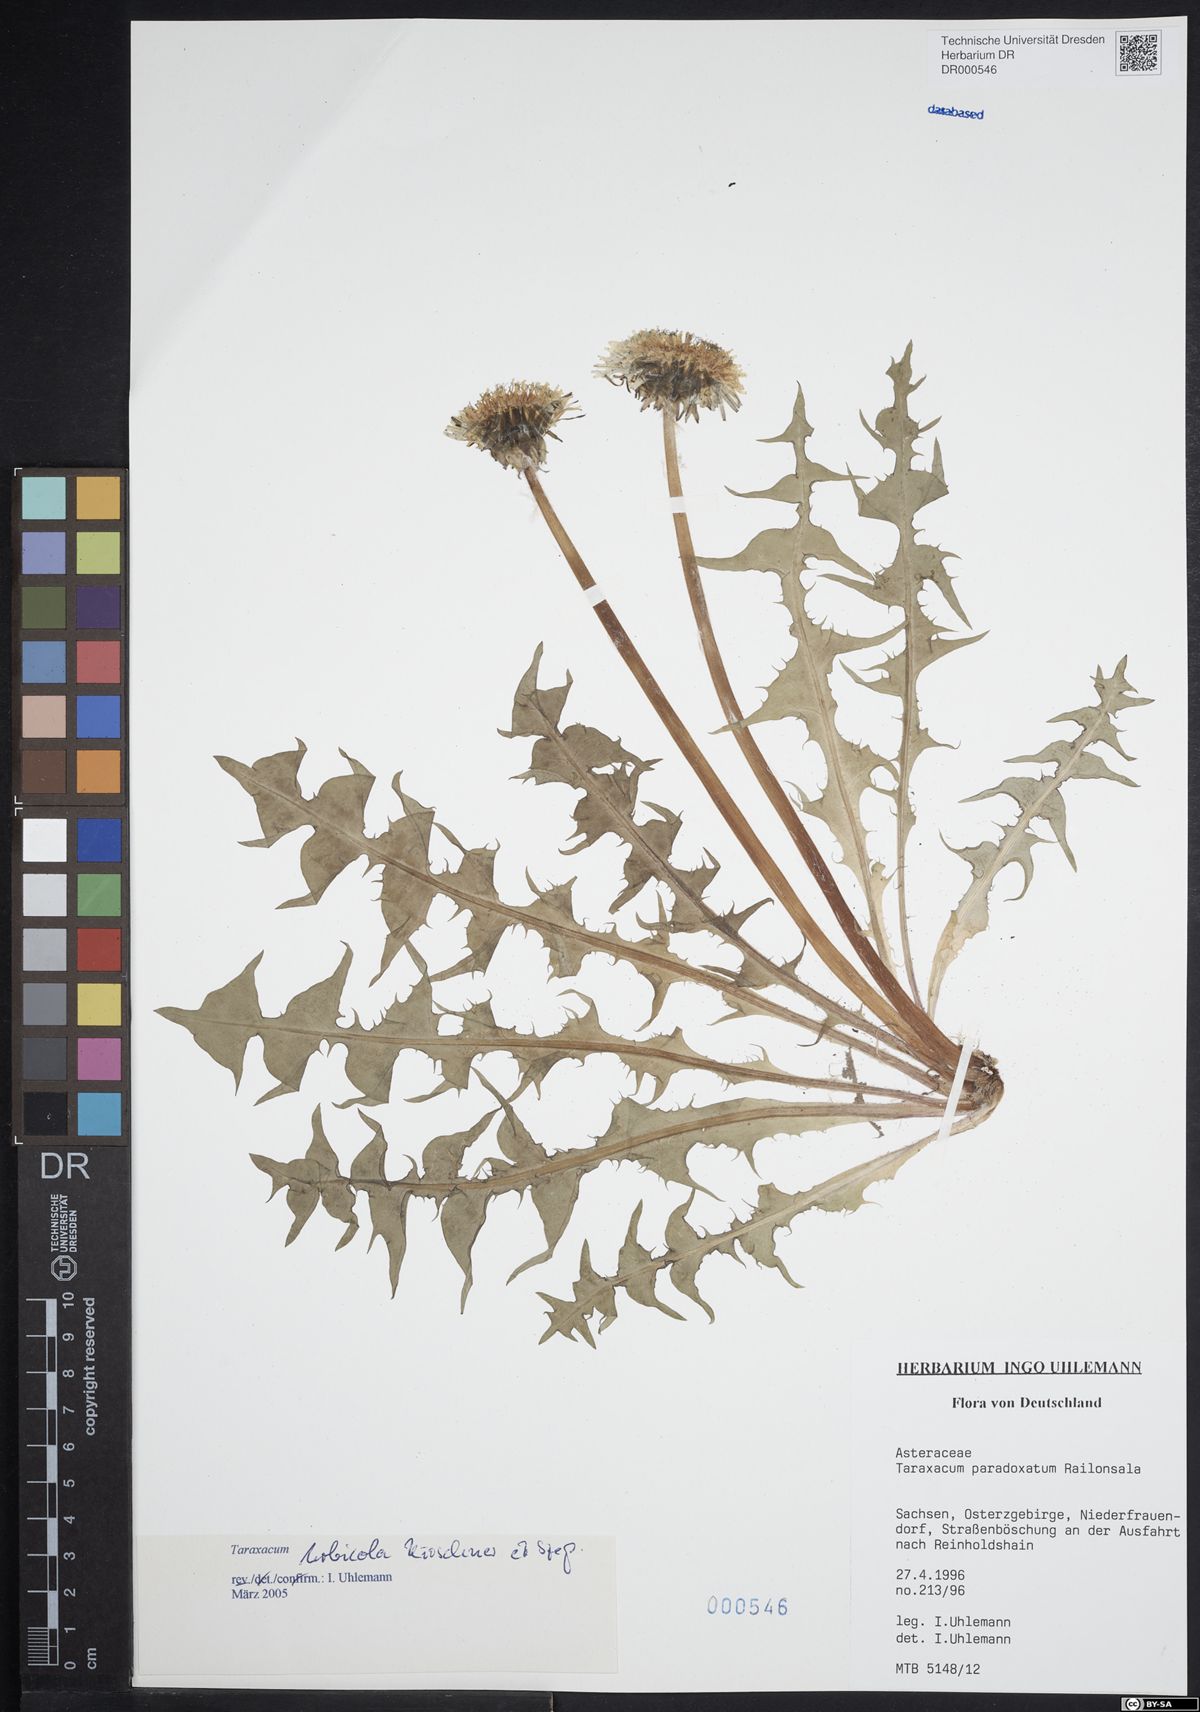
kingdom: Plantae
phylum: Tracheophyta
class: Magnoliopsida
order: Asterales
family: Asteraceae
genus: Taraxacum
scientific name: Taraxacum urbicola
